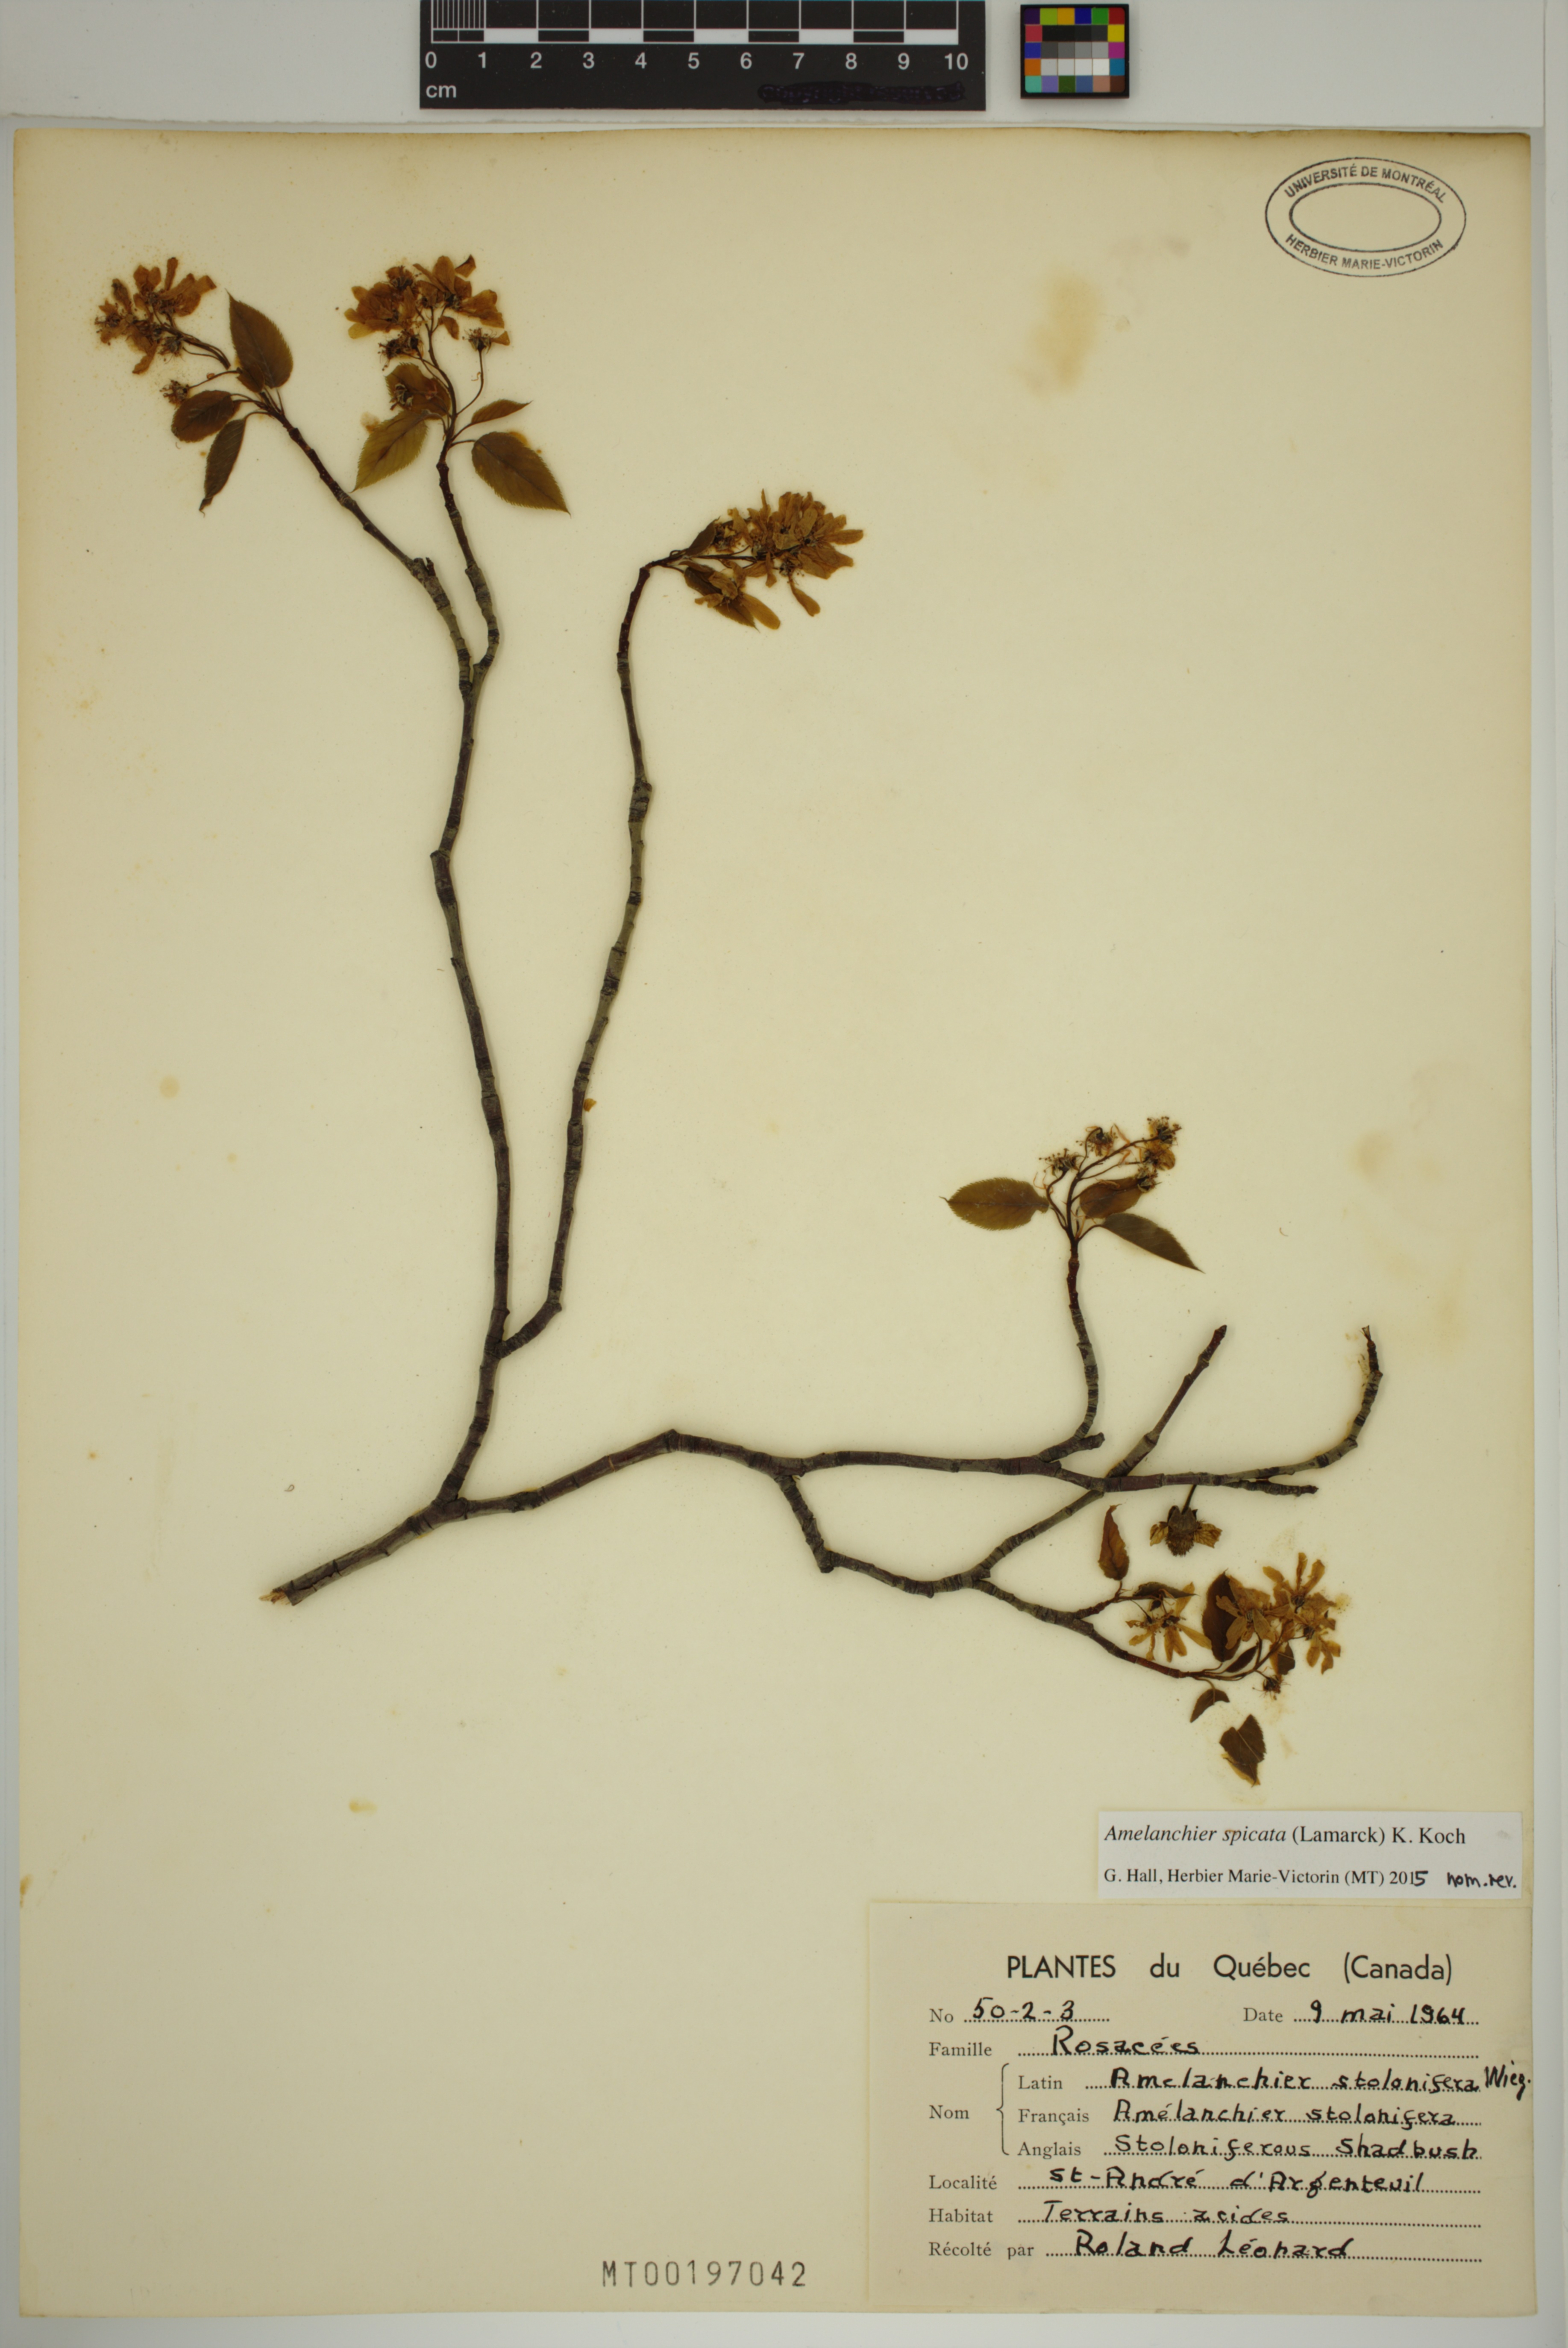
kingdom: Plantae
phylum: Tracheophyta
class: Magnoliopsida
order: Rosales
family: Rosaceae
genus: Amelanchier
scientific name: Amelanchier humilis
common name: Low juneberry
